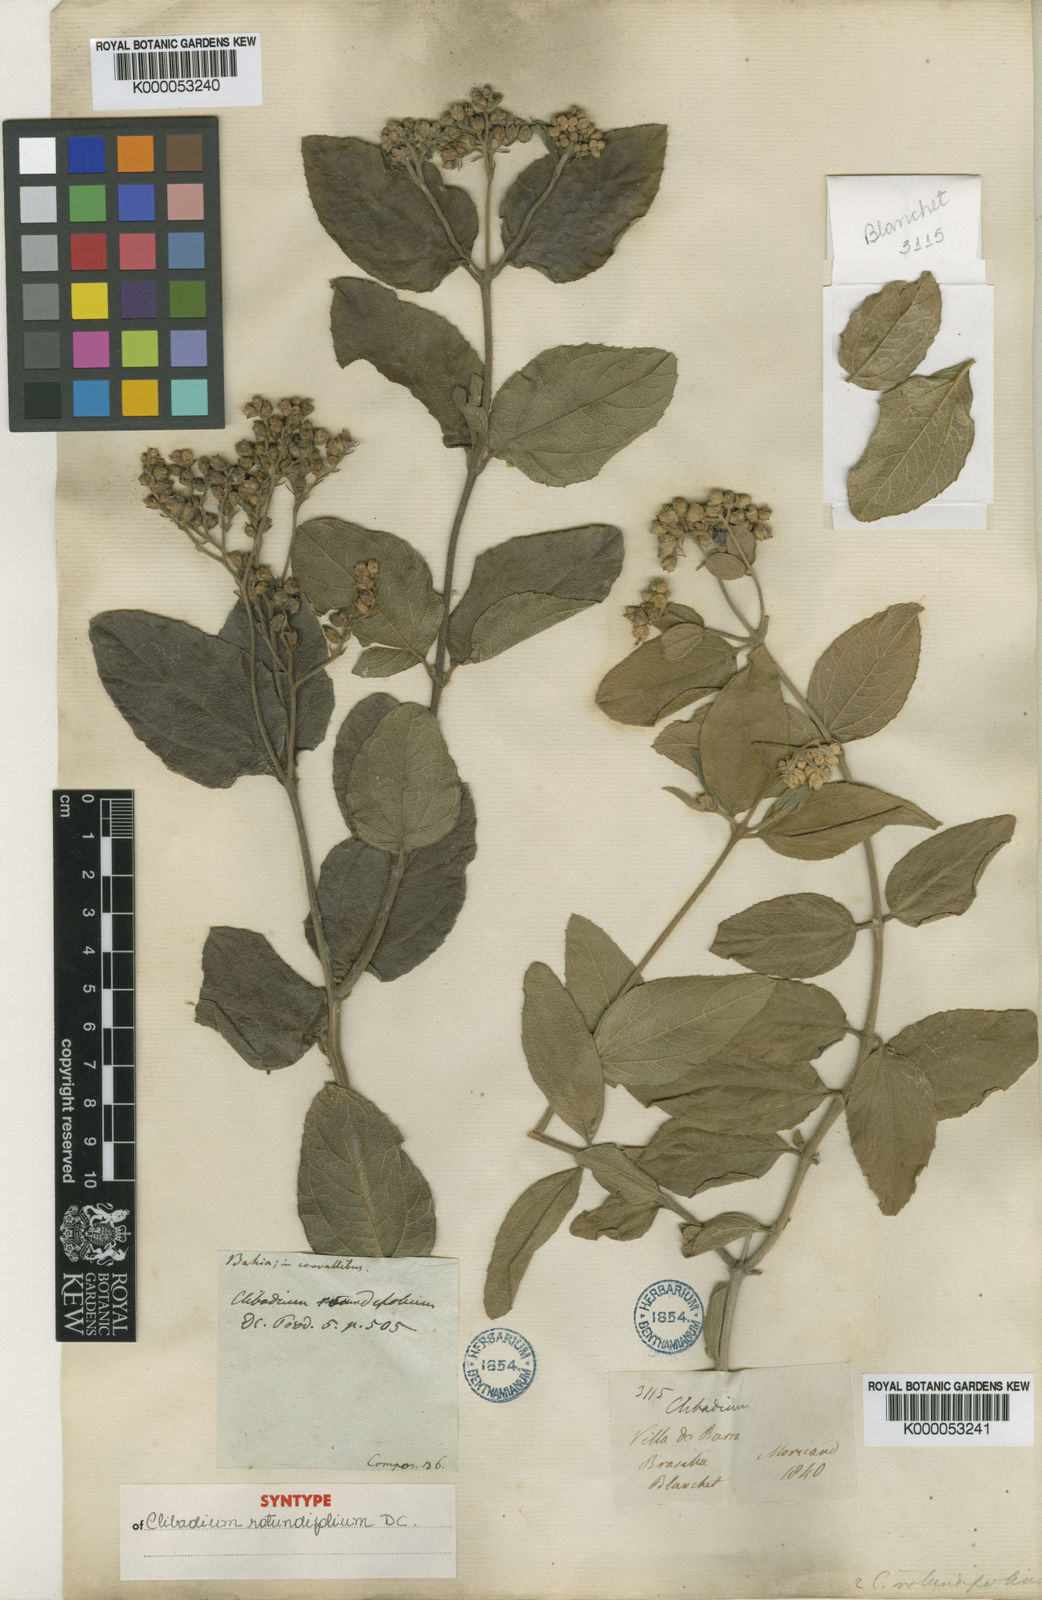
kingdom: Plantae
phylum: Tracheophyta
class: Magnoliopsida
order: Asterales
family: Asteraceae
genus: Clibadium
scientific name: Clibadium armanii
